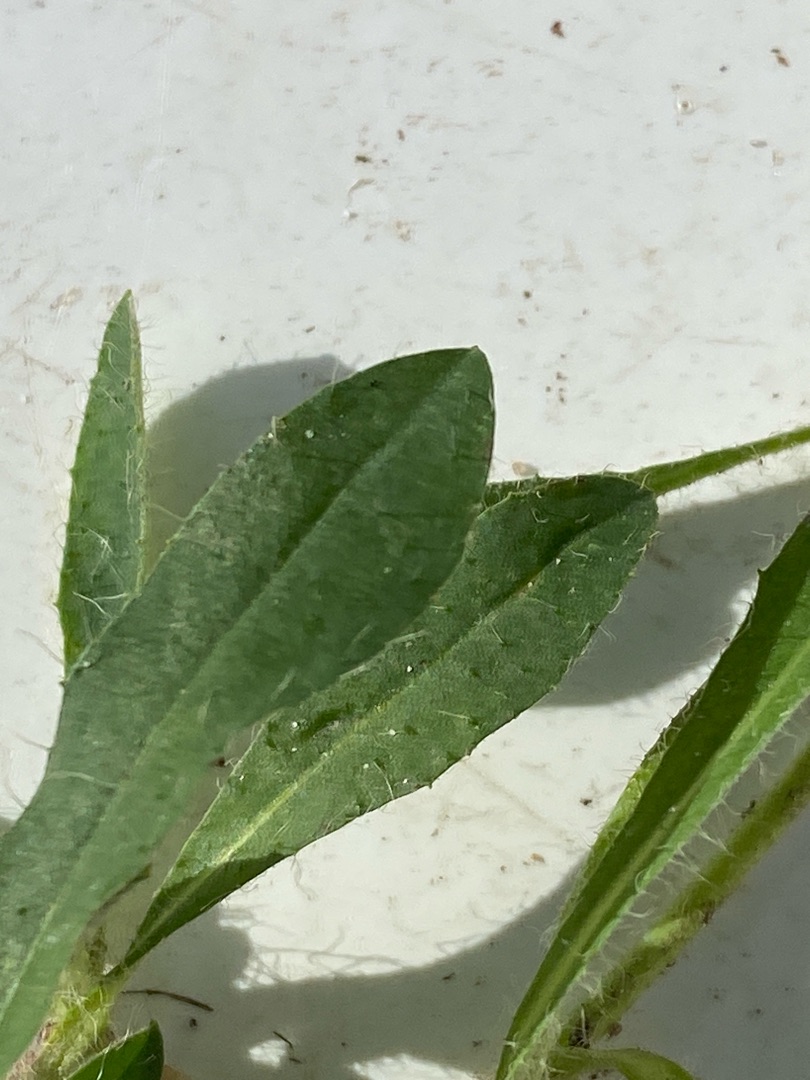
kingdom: Plantae
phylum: Tracheophyta
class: Magnoliopsida
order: Asterales
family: Asteraceae
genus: Pilosella
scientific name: Pilosella officinarum
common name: Håret høgeurt
